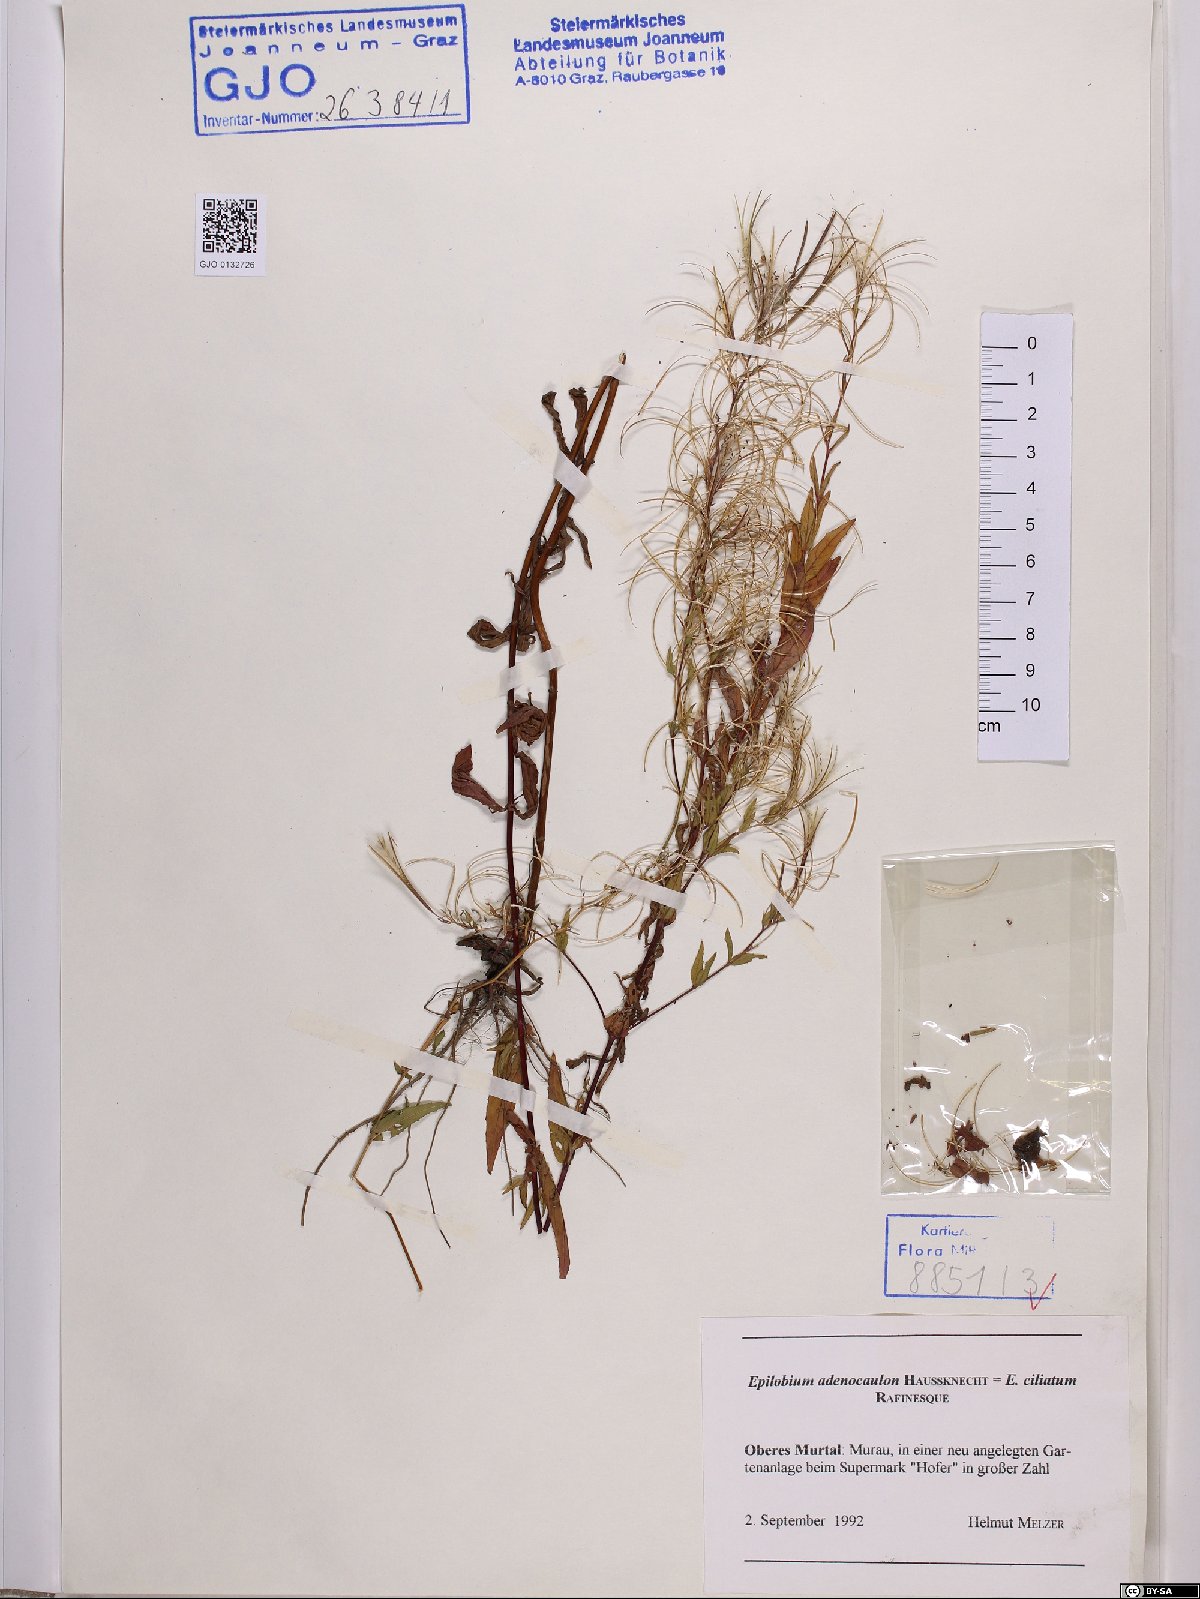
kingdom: Plantae
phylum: Tracheophyta
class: Magnoliopsida
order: Myrtales
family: Onagraceae
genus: Epilobium
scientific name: Epilobium ciliatum
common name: American willowherb
